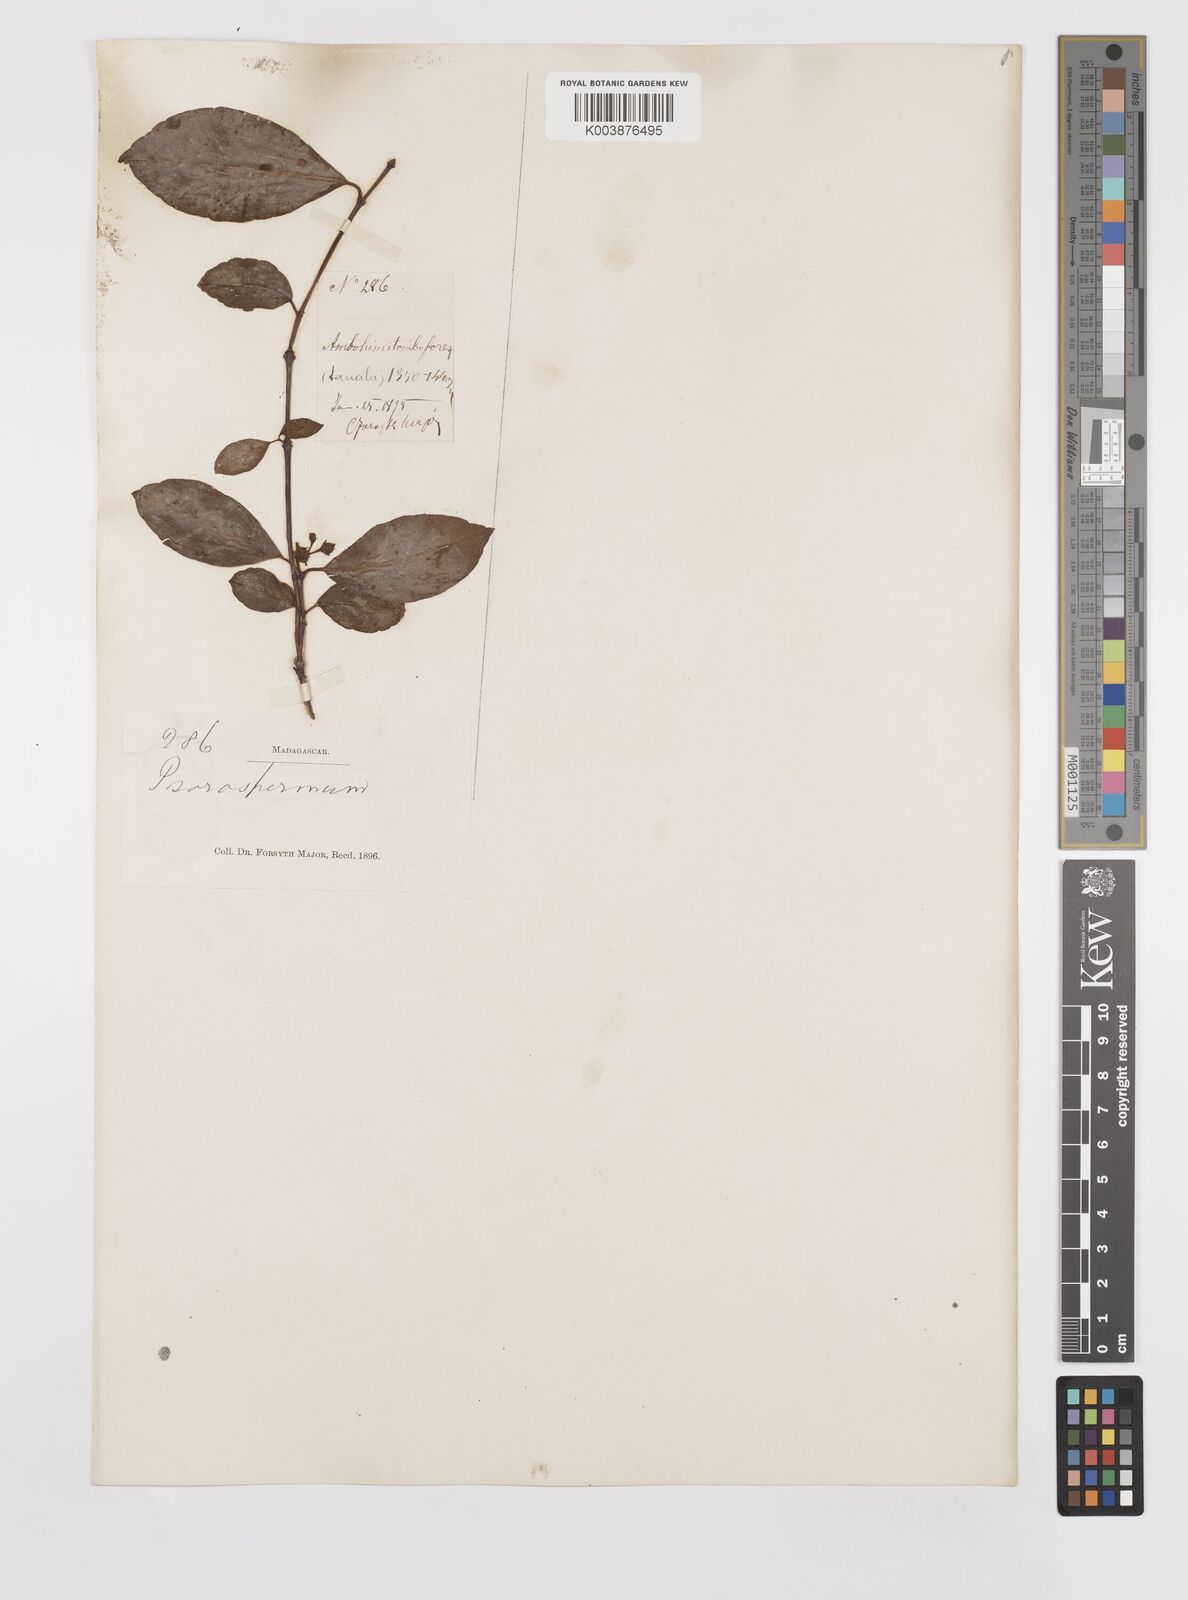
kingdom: Plantae
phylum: Tracheophyta
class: Magnoliopsida
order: Malpighiales
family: Hypericaceae
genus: Psorospermum
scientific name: Psorospermum
